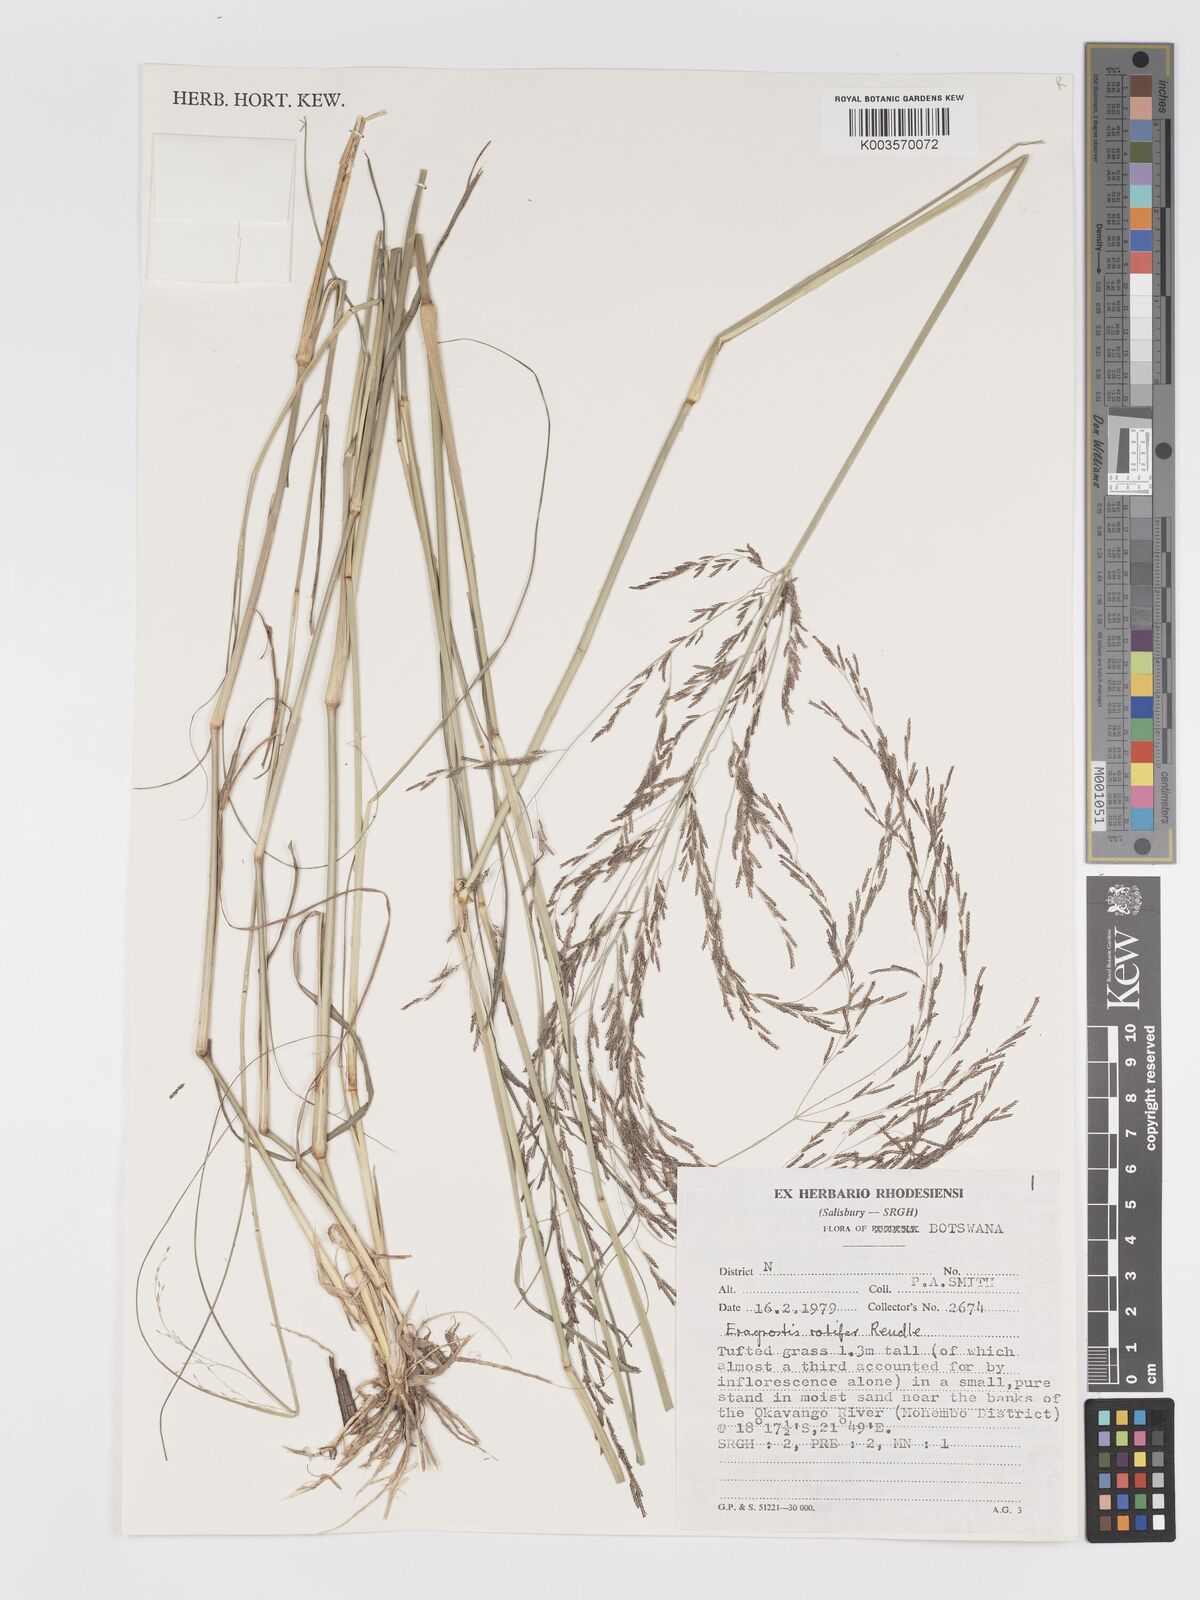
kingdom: Plantae
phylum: Tracheophyta
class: Liliopsida
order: Poales
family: Poaceae
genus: Eragrostis
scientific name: Eragrostis rotifer
